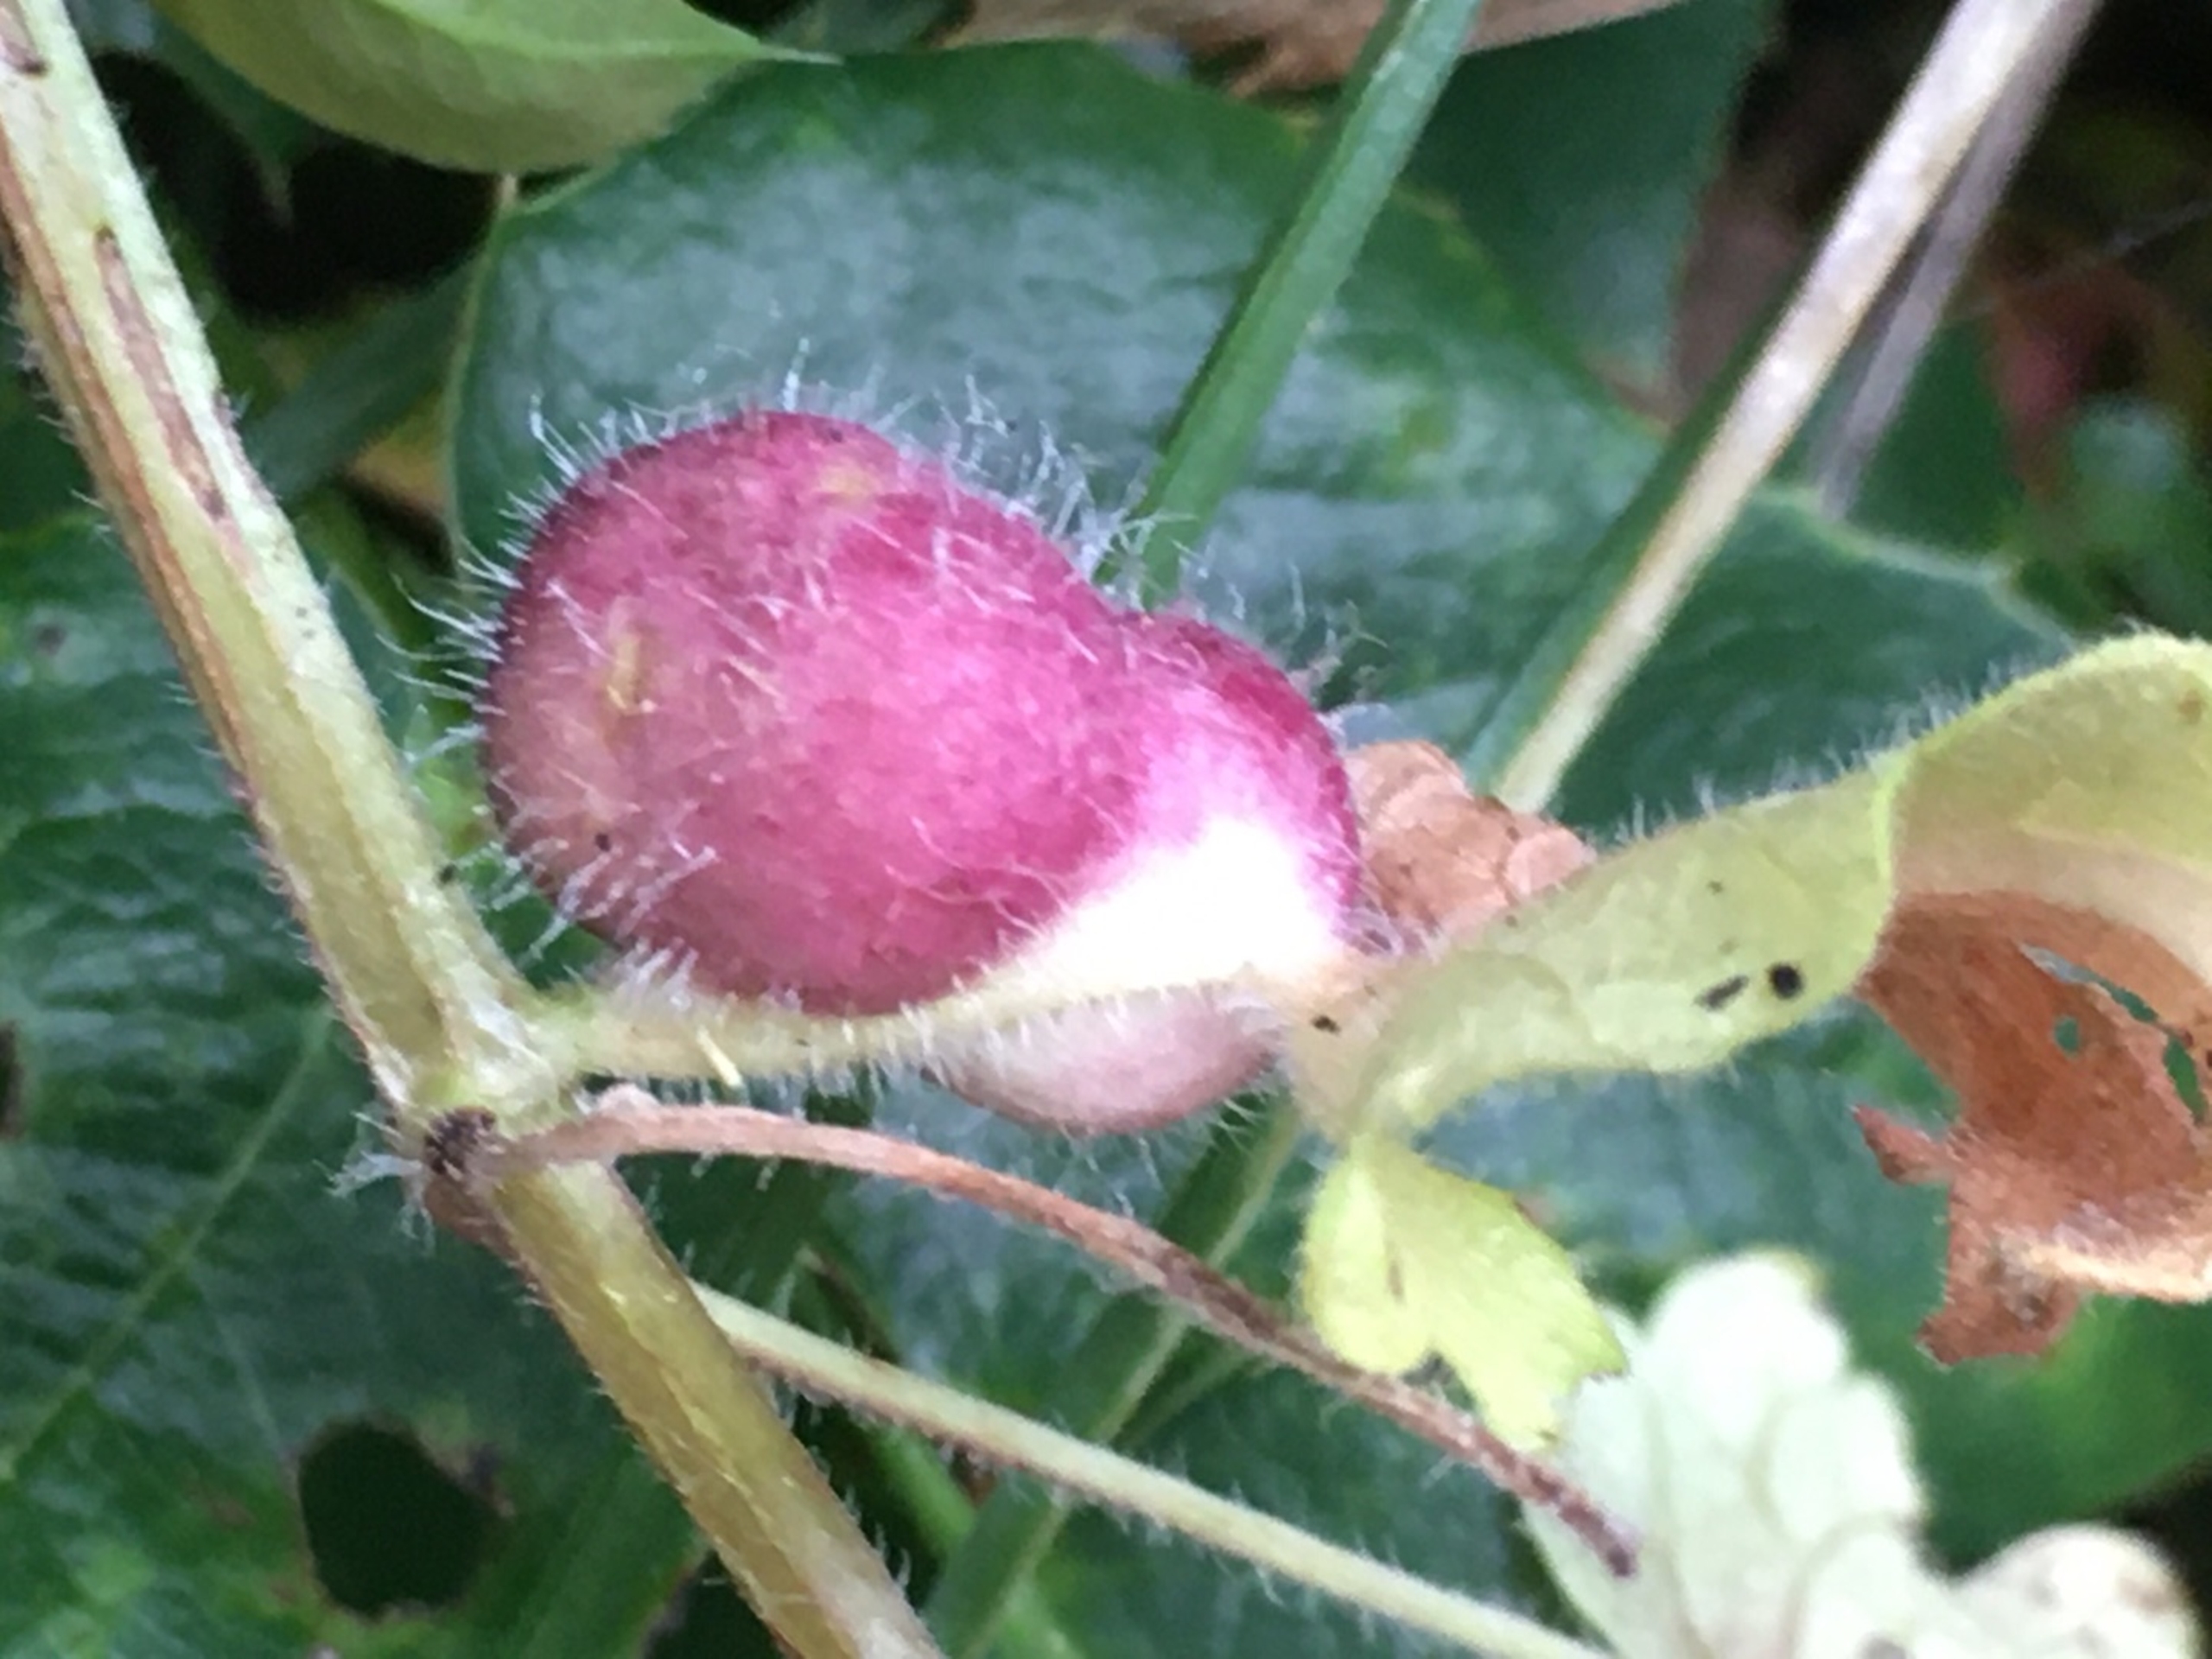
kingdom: Animalia
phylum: Arthropoda
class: Insecta
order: Hymenoptera
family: Cynipidae
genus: Liposthenes
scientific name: Liposthenes glechomae
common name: Korsknapgalhveps
